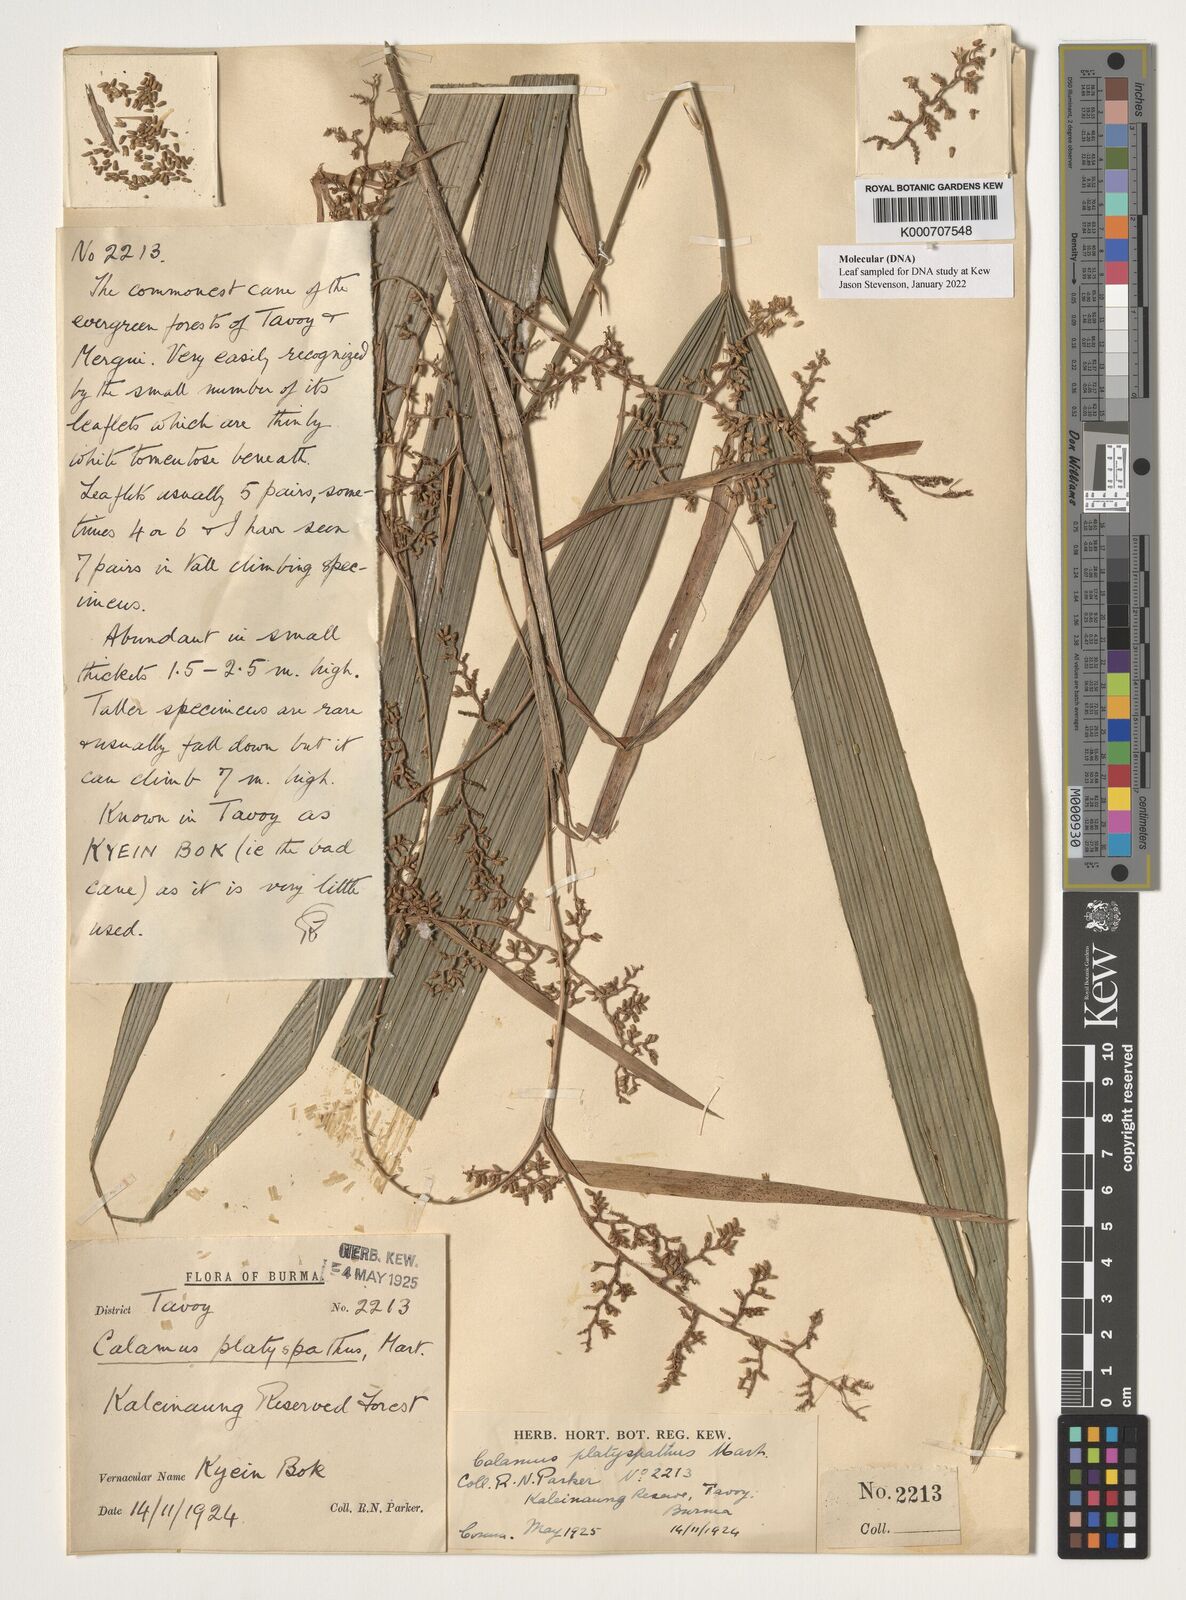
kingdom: Plantae
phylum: Tracheophyta
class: Liliopsida
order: Arecales
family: Arecaceae
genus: Calamus
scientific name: Calamus platyspathus
